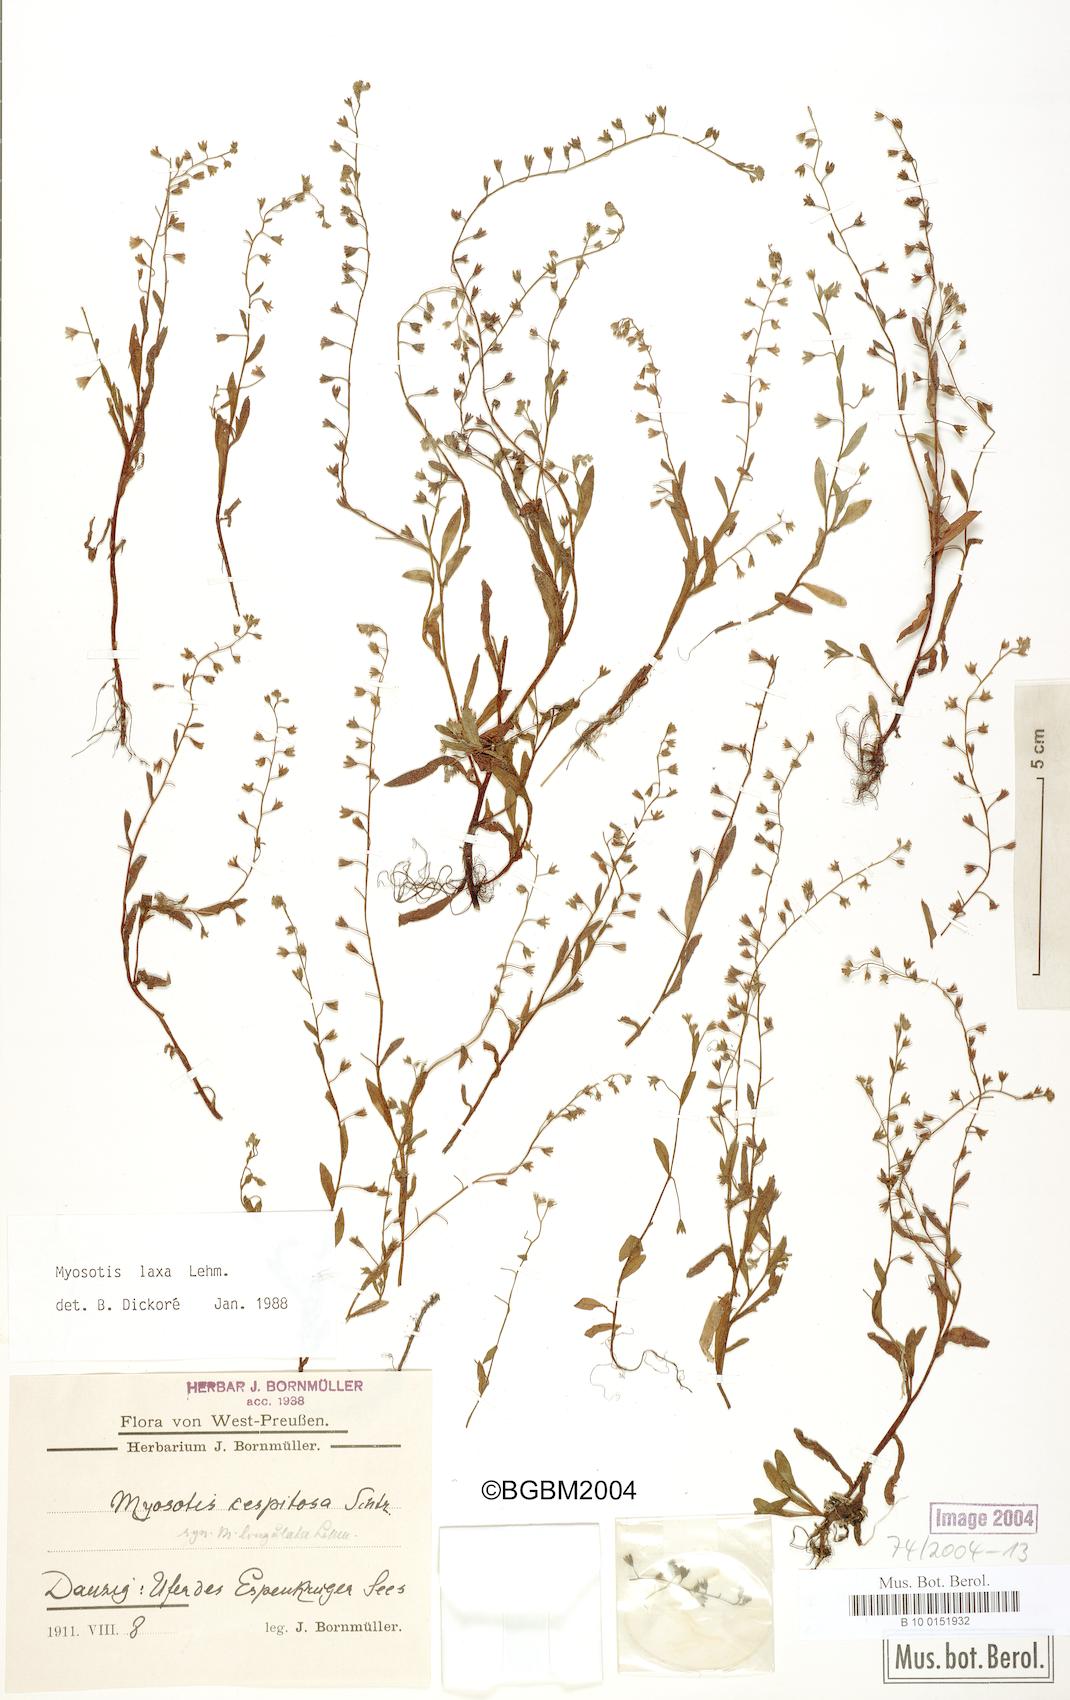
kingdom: Plantae
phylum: Tracheophyta
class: Magnoliopsida
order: Boraginales
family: Boraginaceae
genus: Myosotis
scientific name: Myosotis laxa
